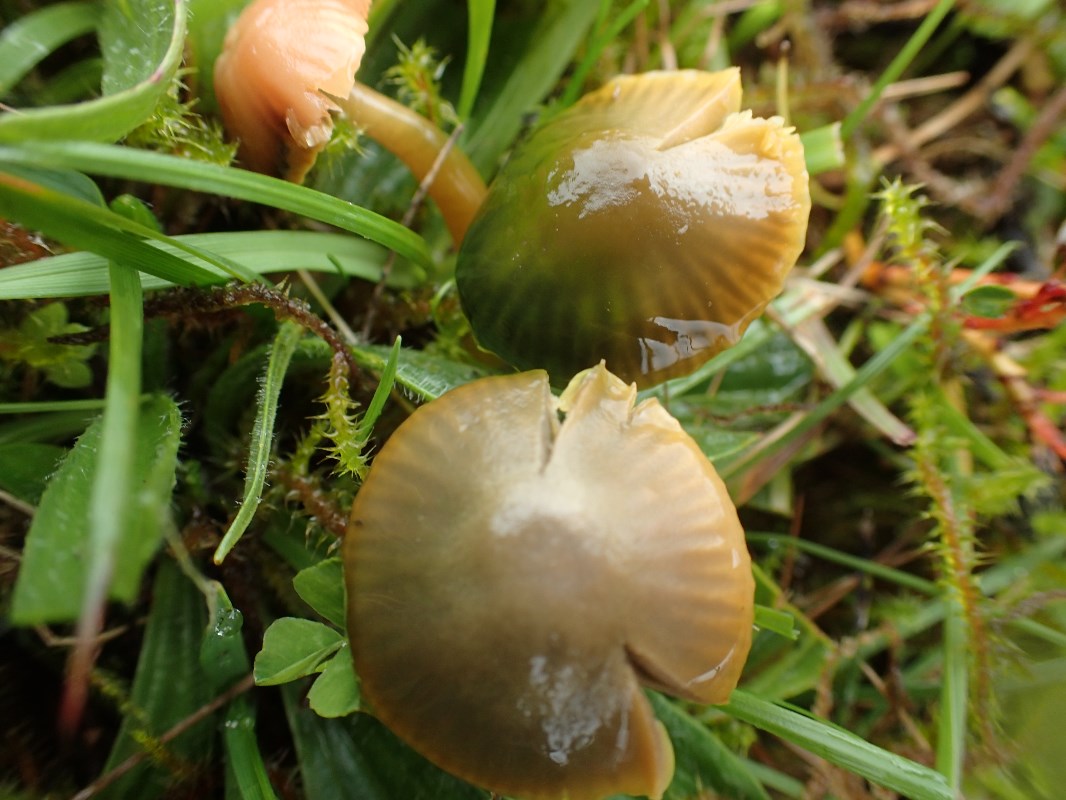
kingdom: Fungi
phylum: Basidiomycota
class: Agaricomycetes
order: Agaricales
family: Hygrophoraceae
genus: Gliophorus
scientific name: Gliophorus psittacinus
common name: papegøje-vokshat
